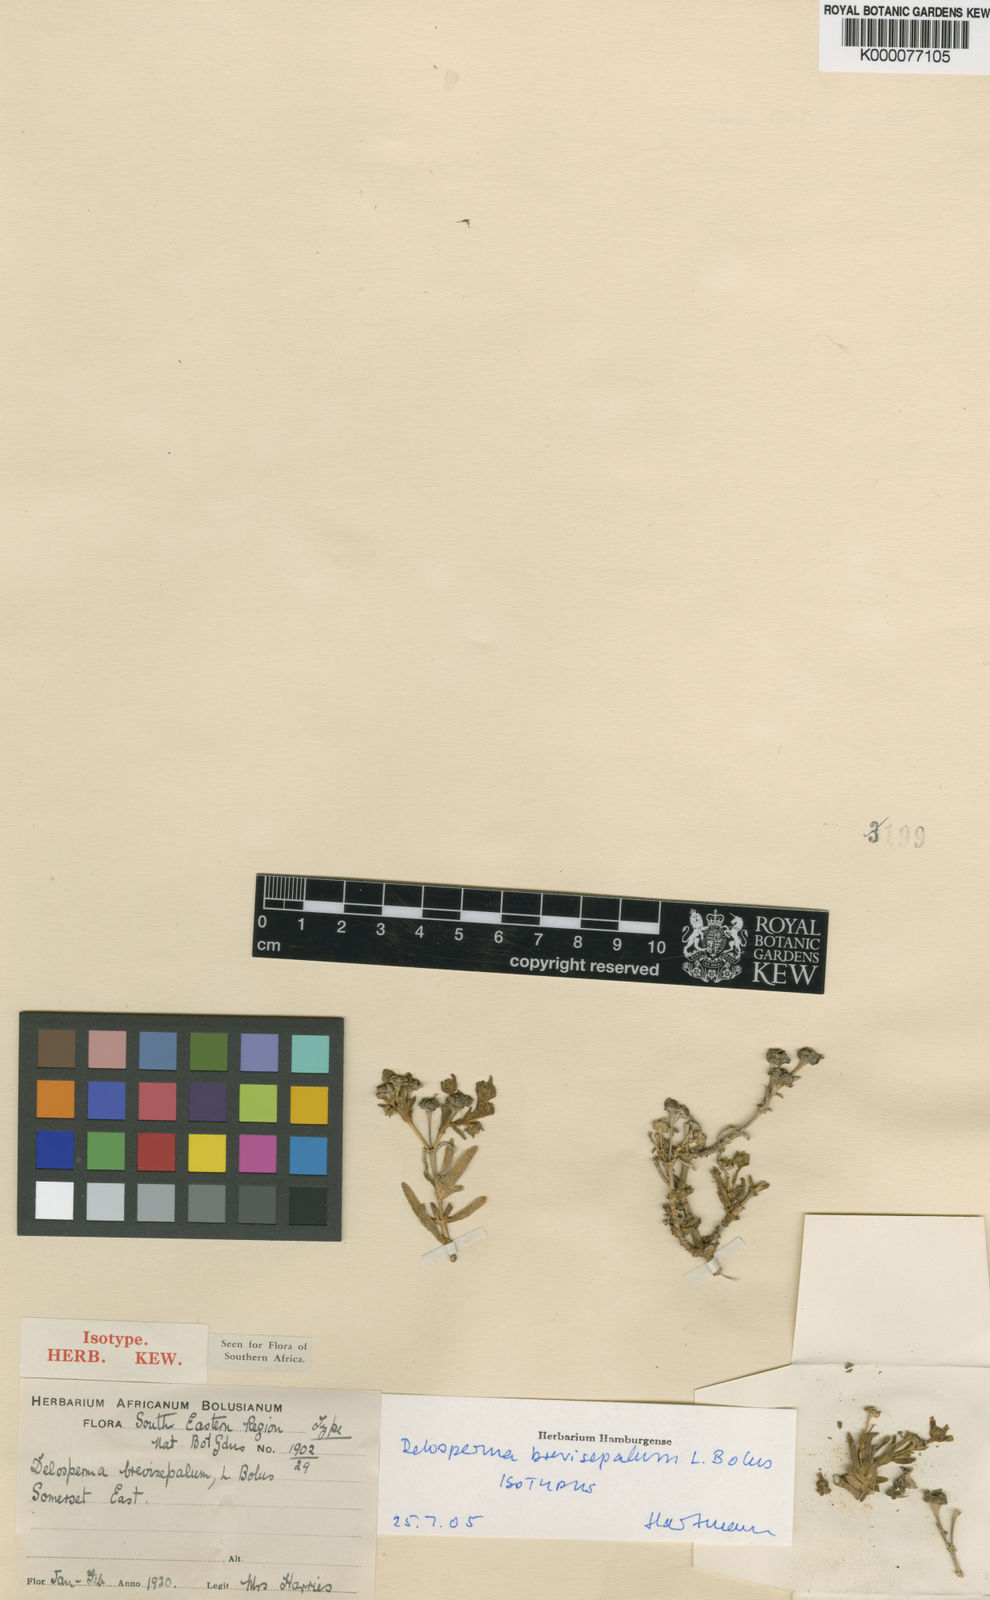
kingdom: Plantae
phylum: Tracheophyta
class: Magnoliopsida
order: Caryophyllales
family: Aizoaceae
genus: Delosperma
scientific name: Delosperma brevisepalum
